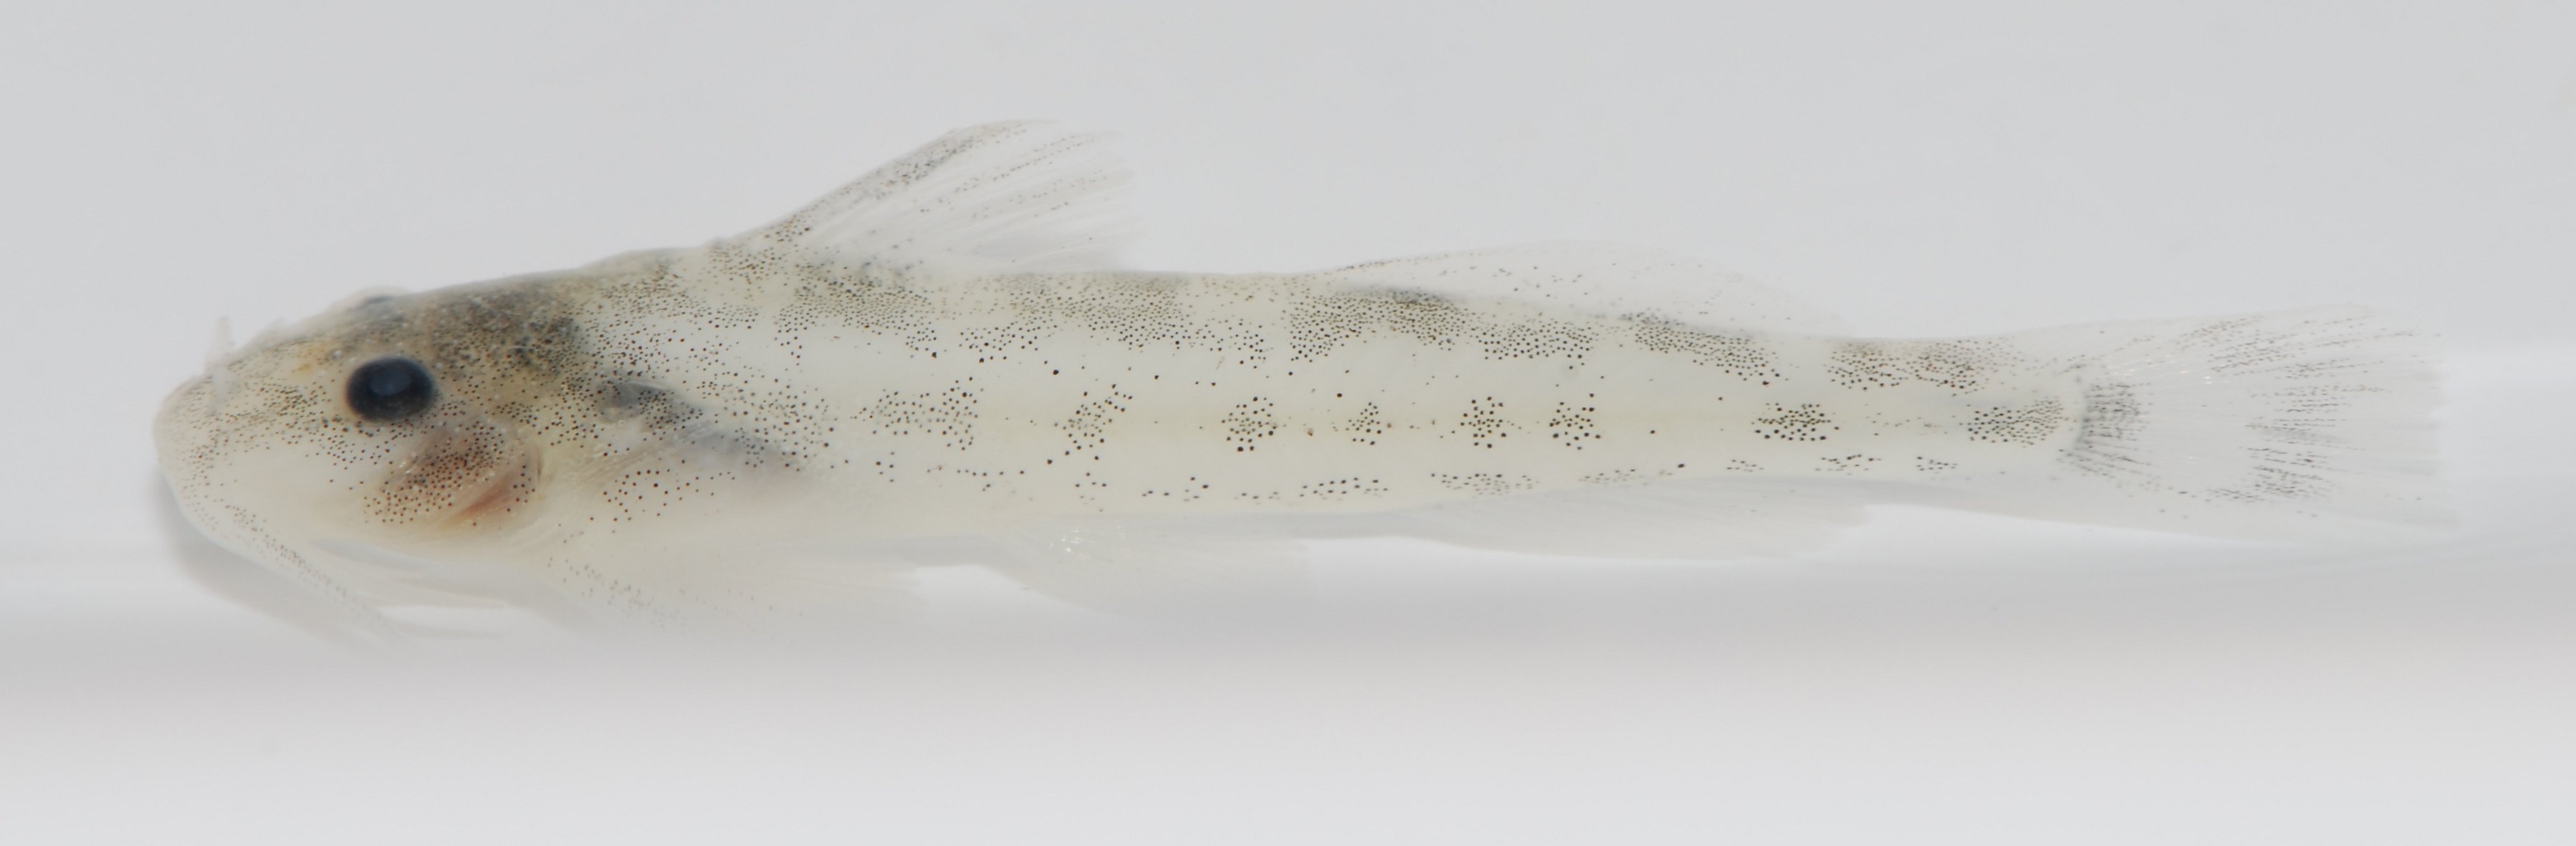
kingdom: Animalia
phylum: Chordata
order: Siluriformes
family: Amphiliidae
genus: Zaireichthys
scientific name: Zaireichthys
